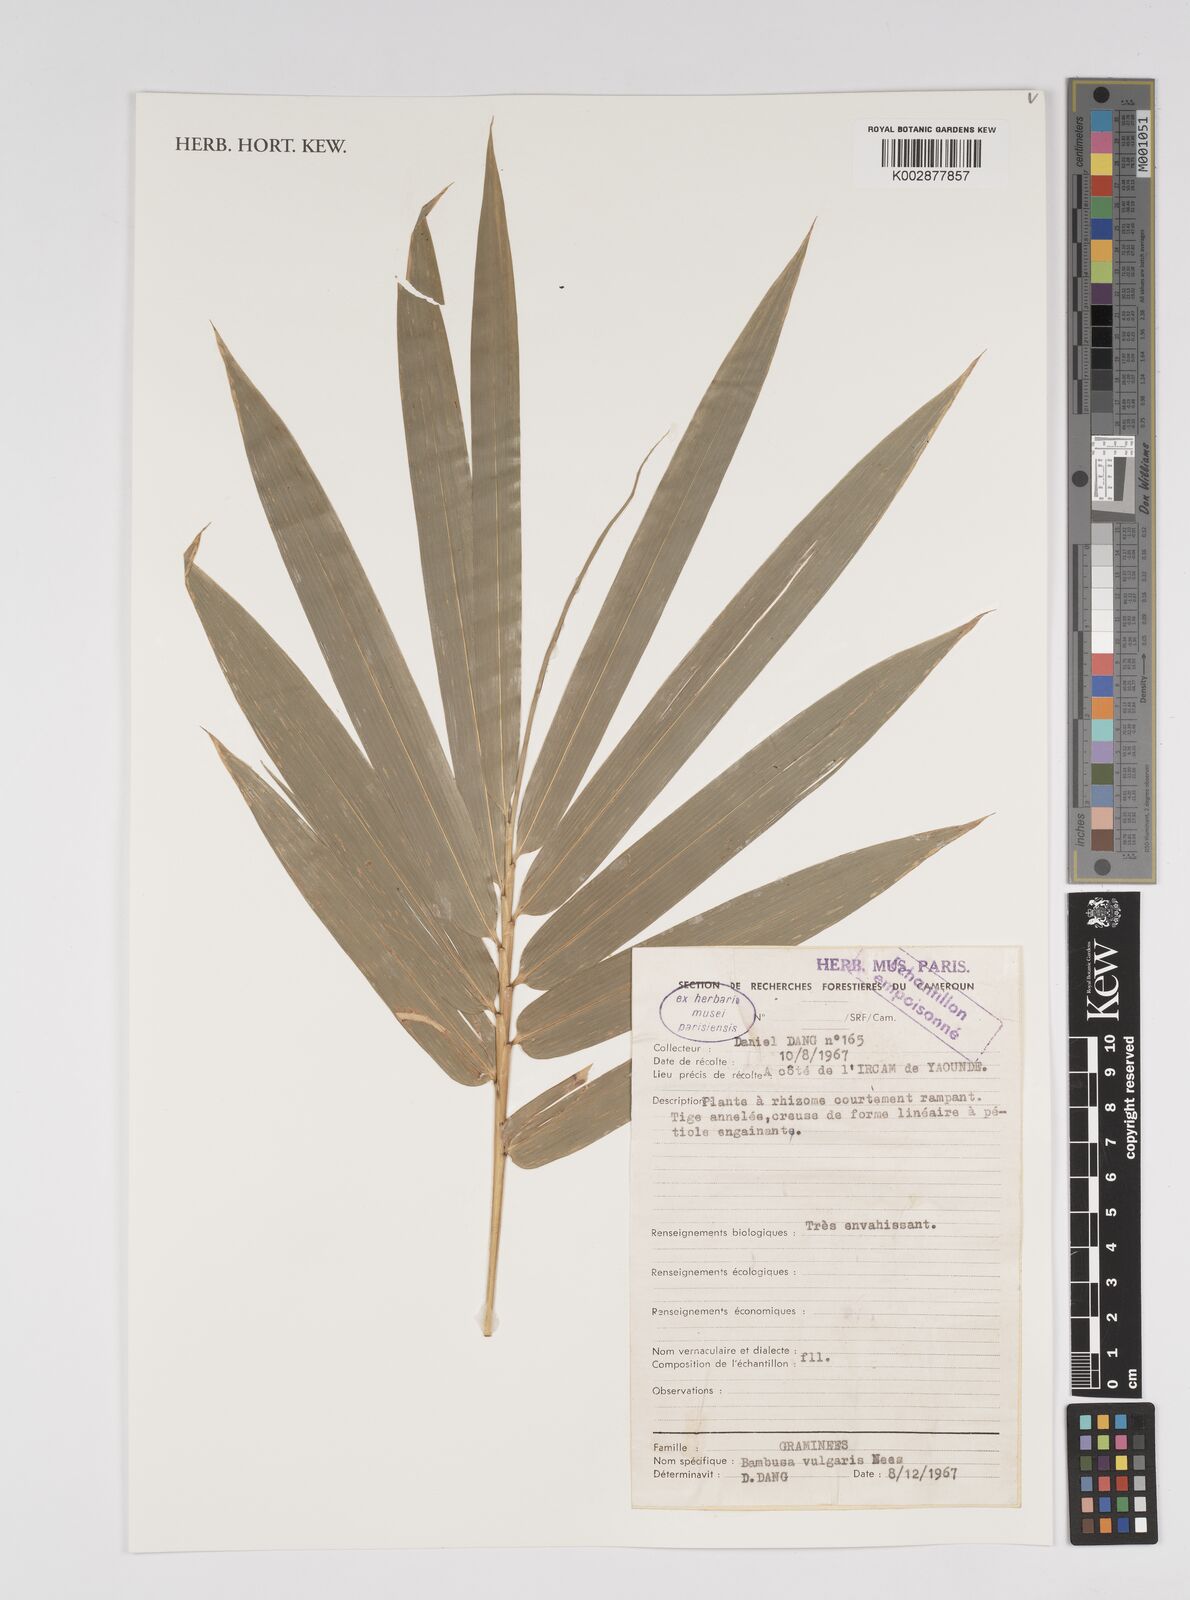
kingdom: Plantae
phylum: Tracheophyta
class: Liliopsida
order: Poales
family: Poaceae
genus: Bambusa
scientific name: Bambusa vulgaris
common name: Common bamboo
